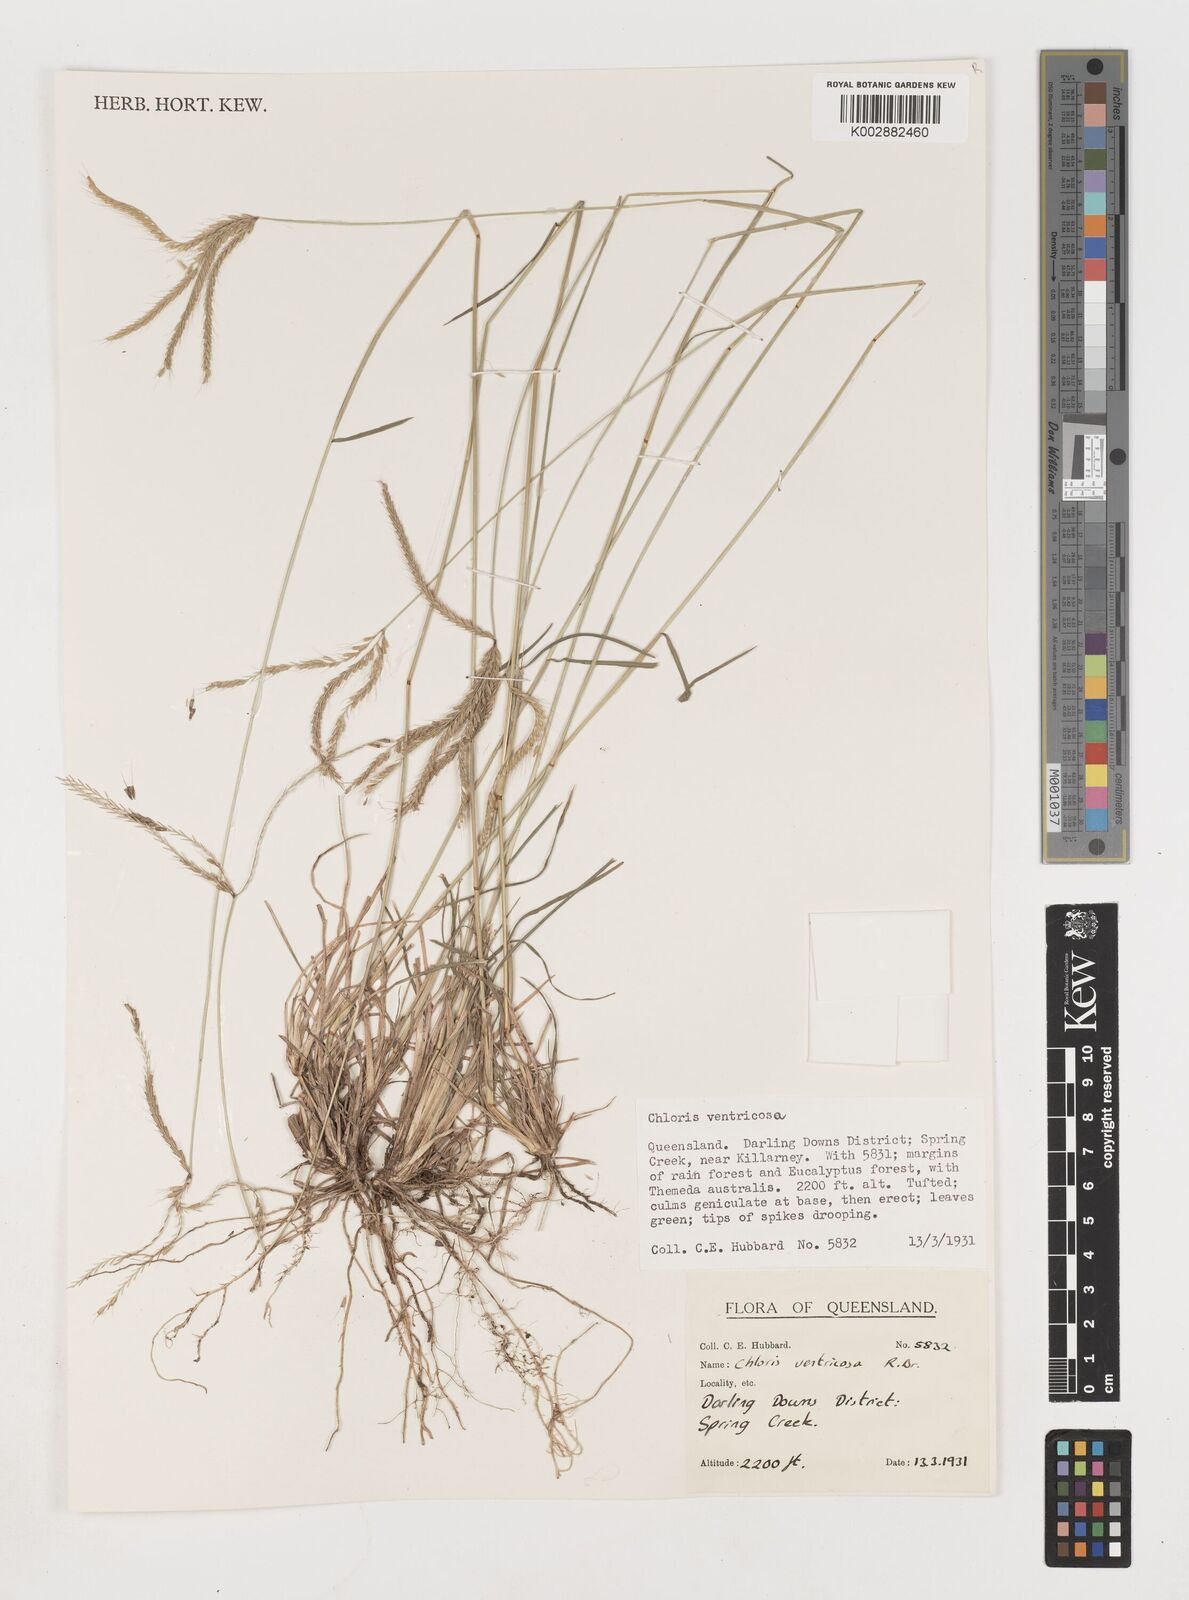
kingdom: Plantae
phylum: Tracheophyta
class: Liliopsida
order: Poales
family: Poaceae
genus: Chloris
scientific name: Chloris ventricosa
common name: Australian windmill grass
